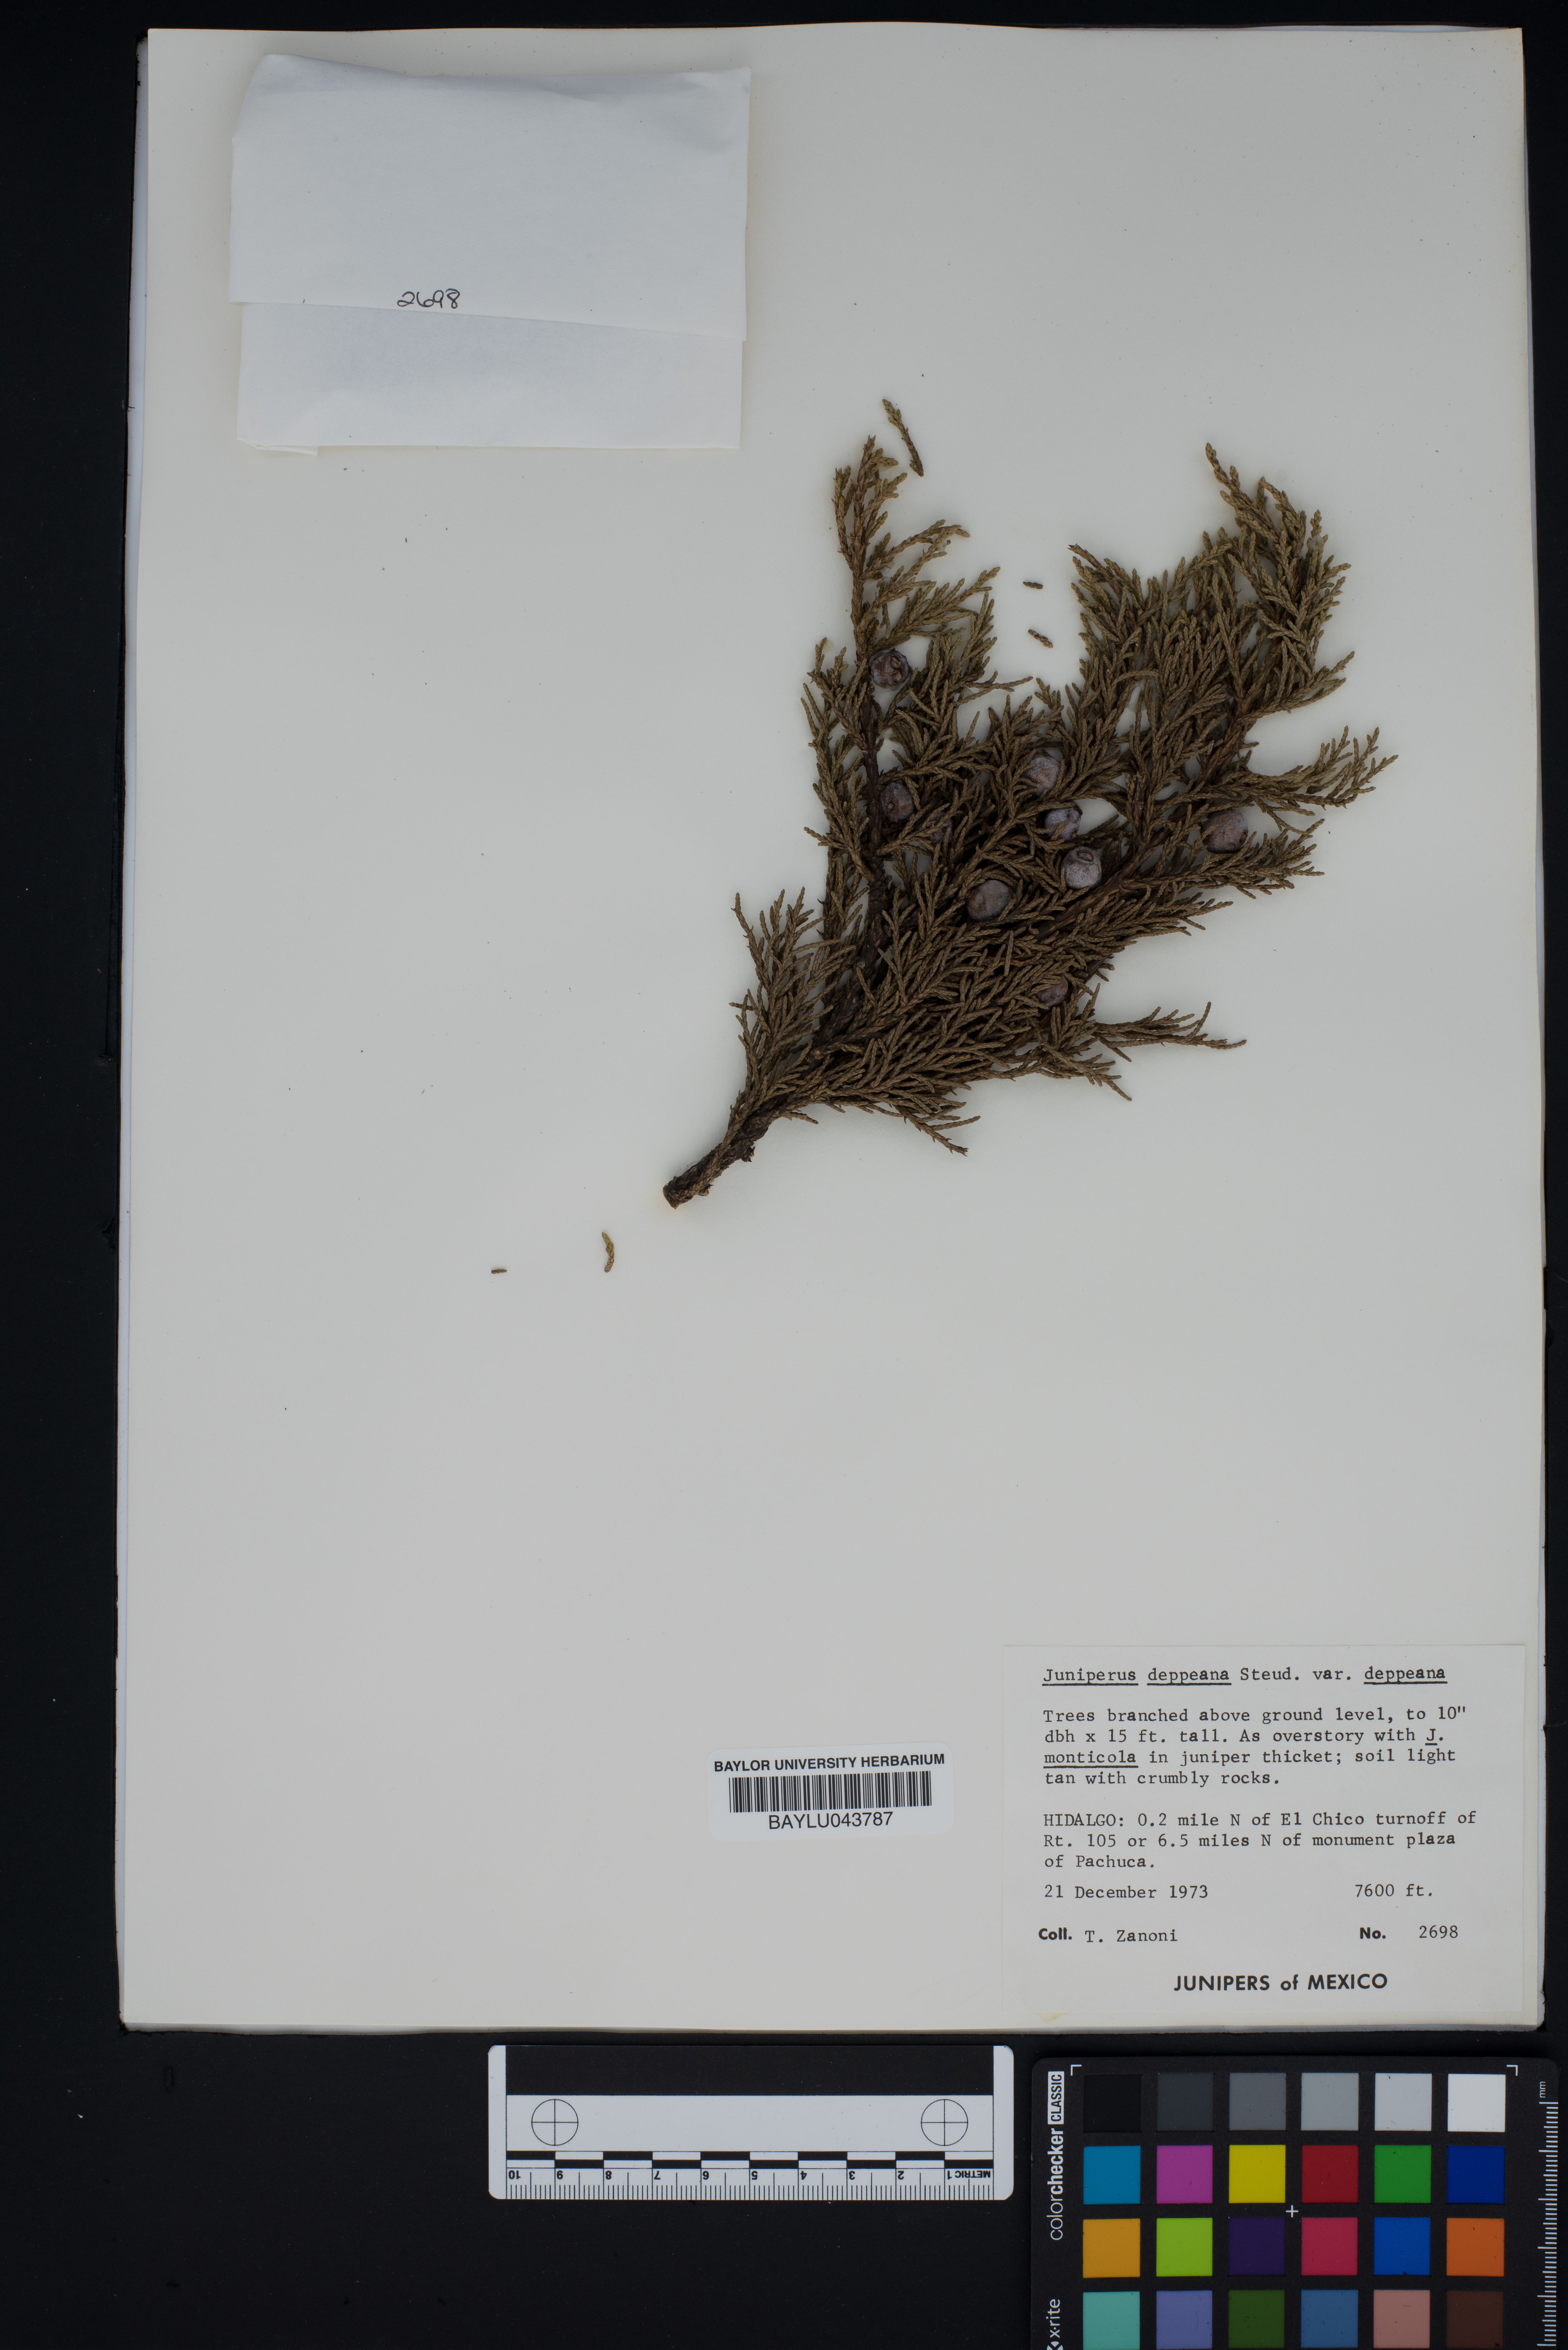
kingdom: Plantae
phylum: Tracheophyta
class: Pinopsida
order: Pinales
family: Cupressaceae
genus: Juniperus
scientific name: Juniperus deppeana
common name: Alligator juniper
